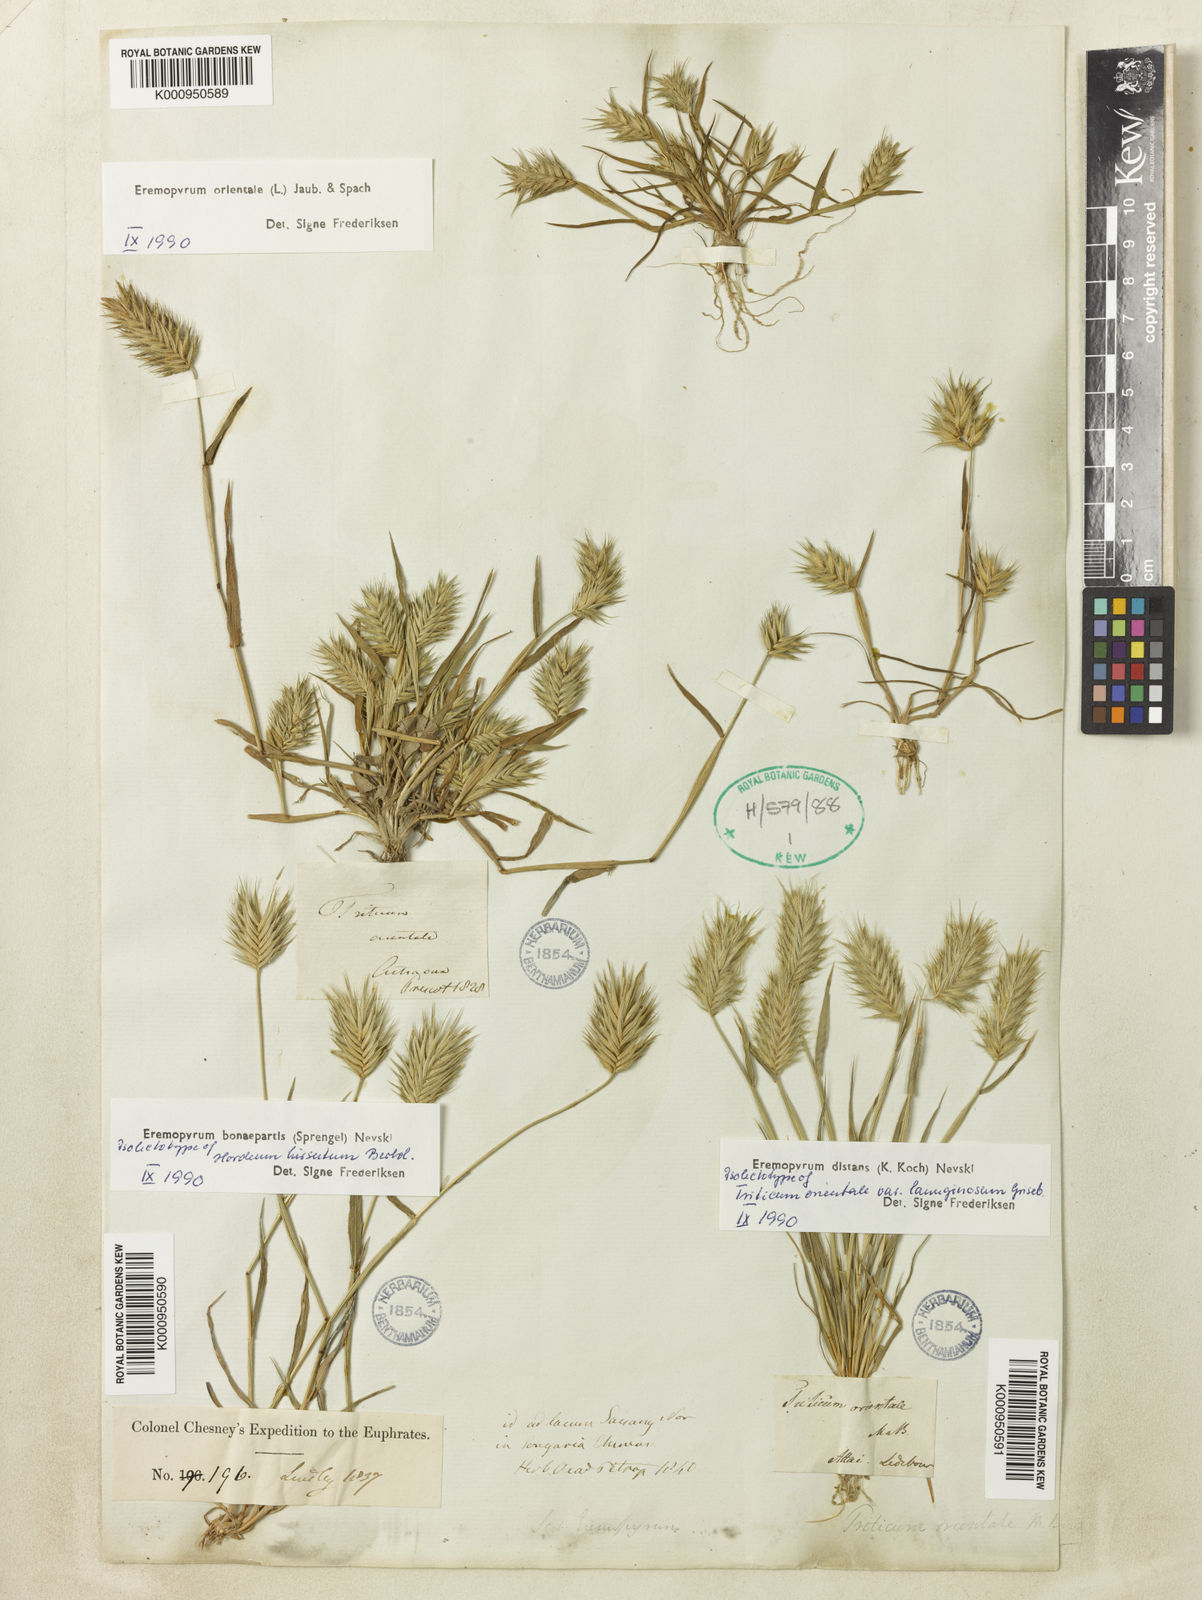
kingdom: Plantae
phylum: Tracheophyta
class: Liliopsida
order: Poales
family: Poaceae
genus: Eremopyrum
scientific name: Eremopyrum bonaepartis
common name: Tapertip false wheatgrass
